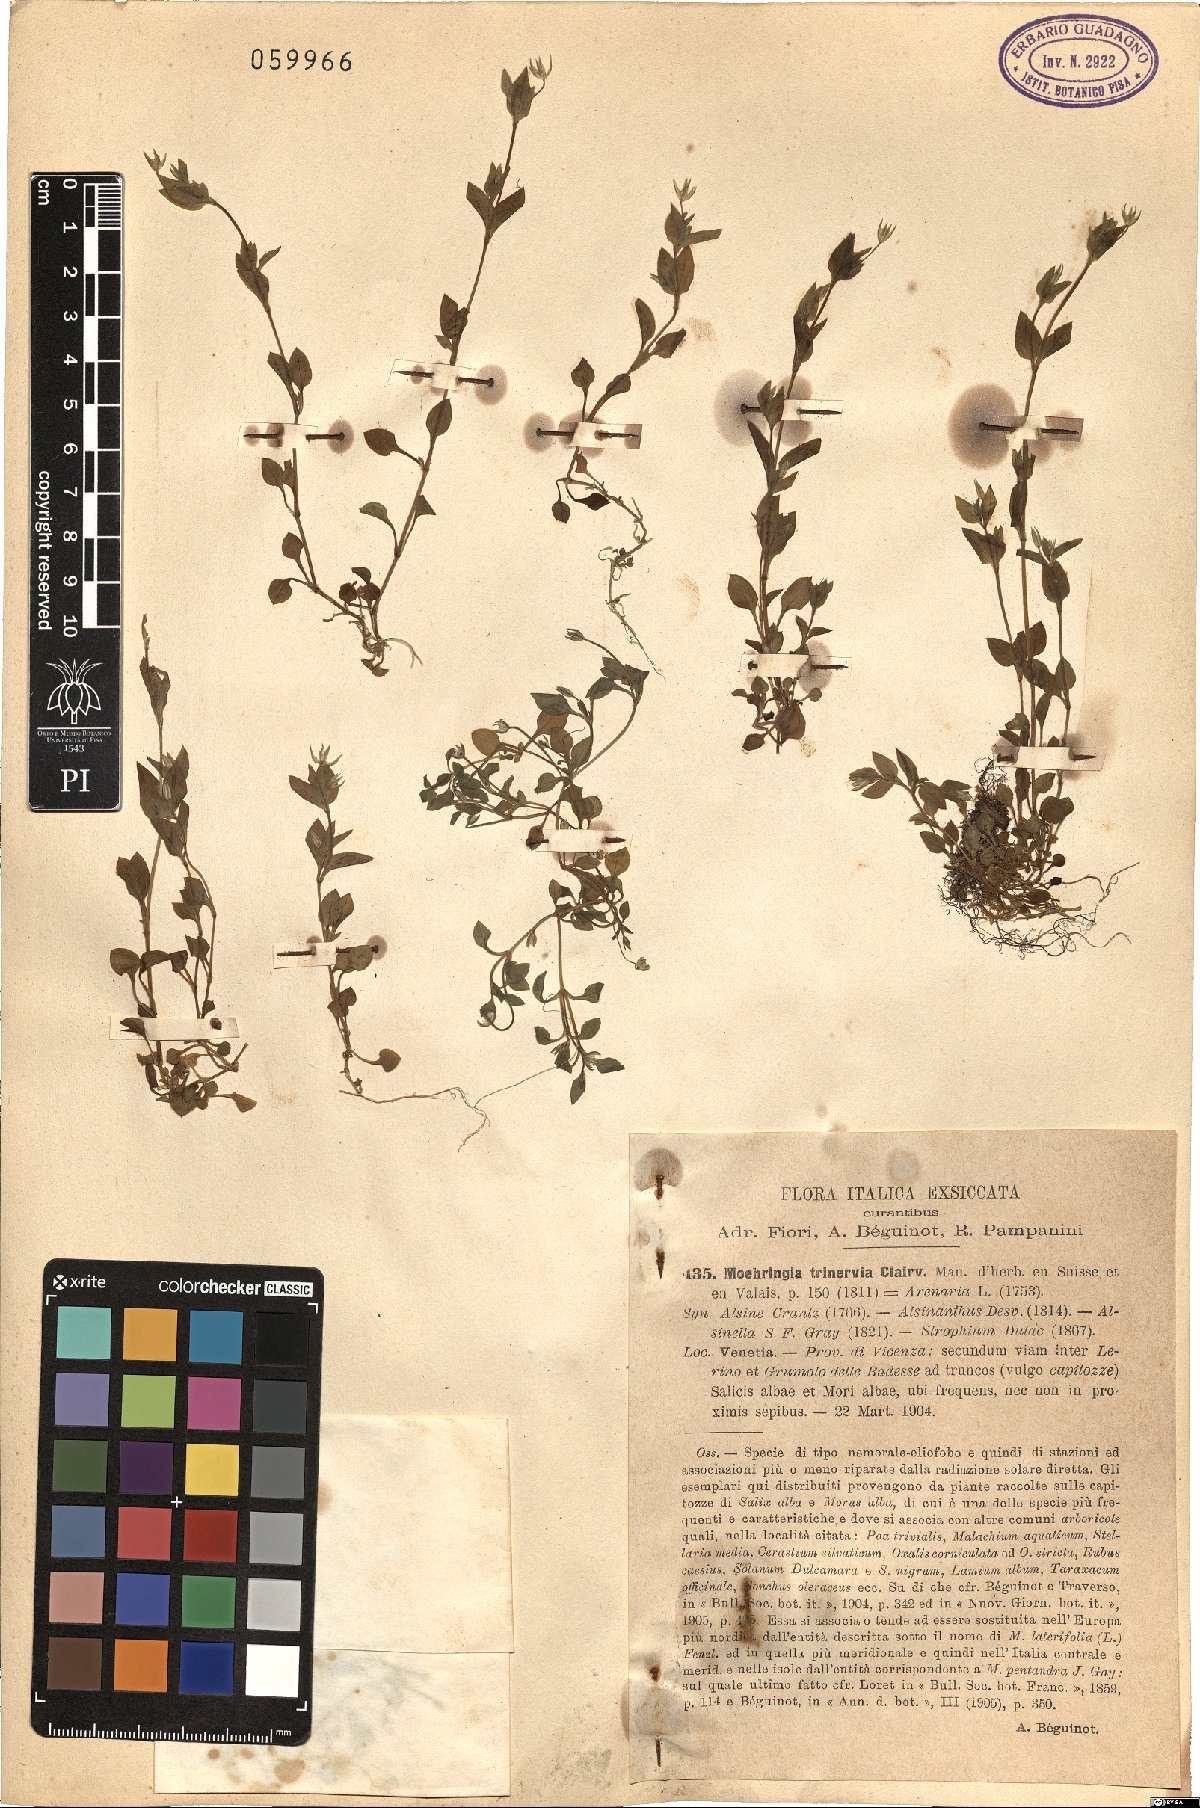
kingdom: Plantae
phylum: Tracheophyta
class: Magnoliopsida
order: Caryophyllales
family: Caryophyllaceae
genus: Moehringia
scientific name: Moehringia trinervia
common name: Three-nerved sandwort
